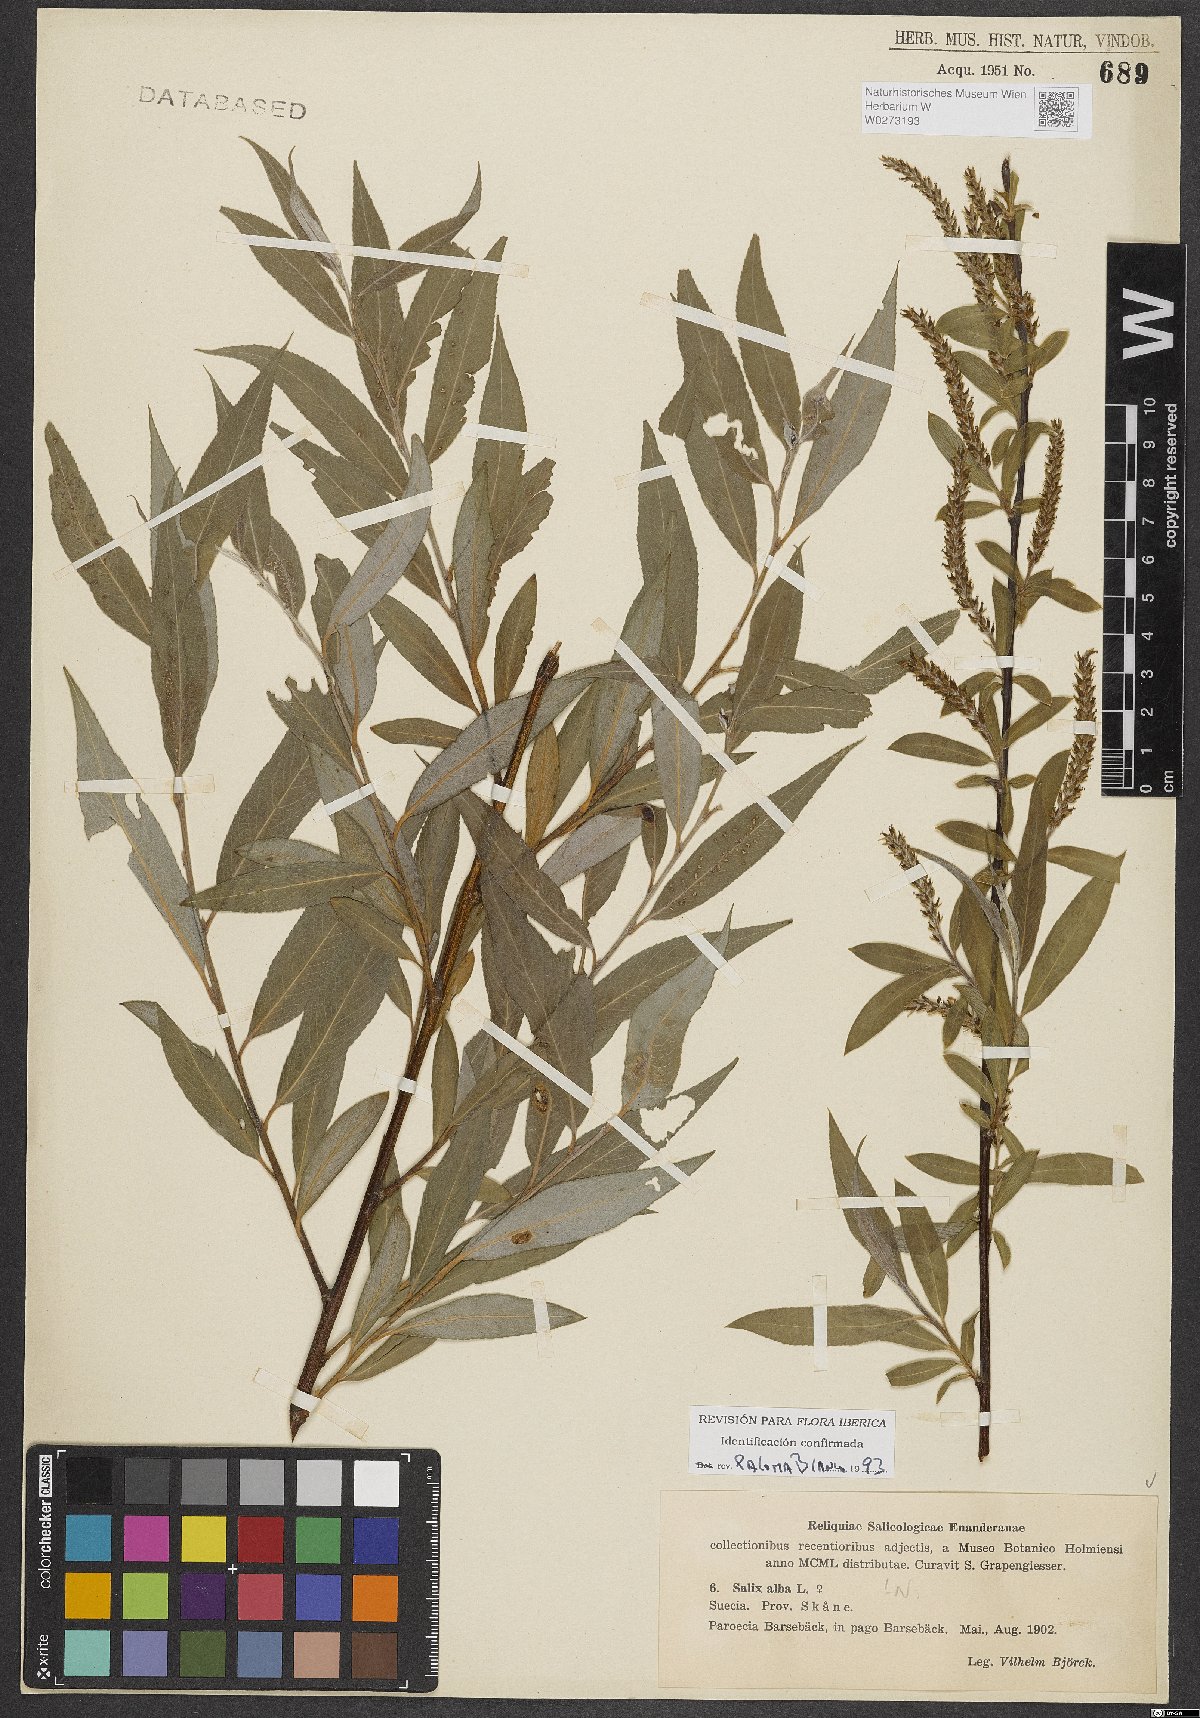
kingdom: Plantae
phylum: Tracheophyta
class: Magnoliopsida
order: Malpighiales
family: Salicaceae
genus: Salix
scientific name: Salix alba
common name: White willow
